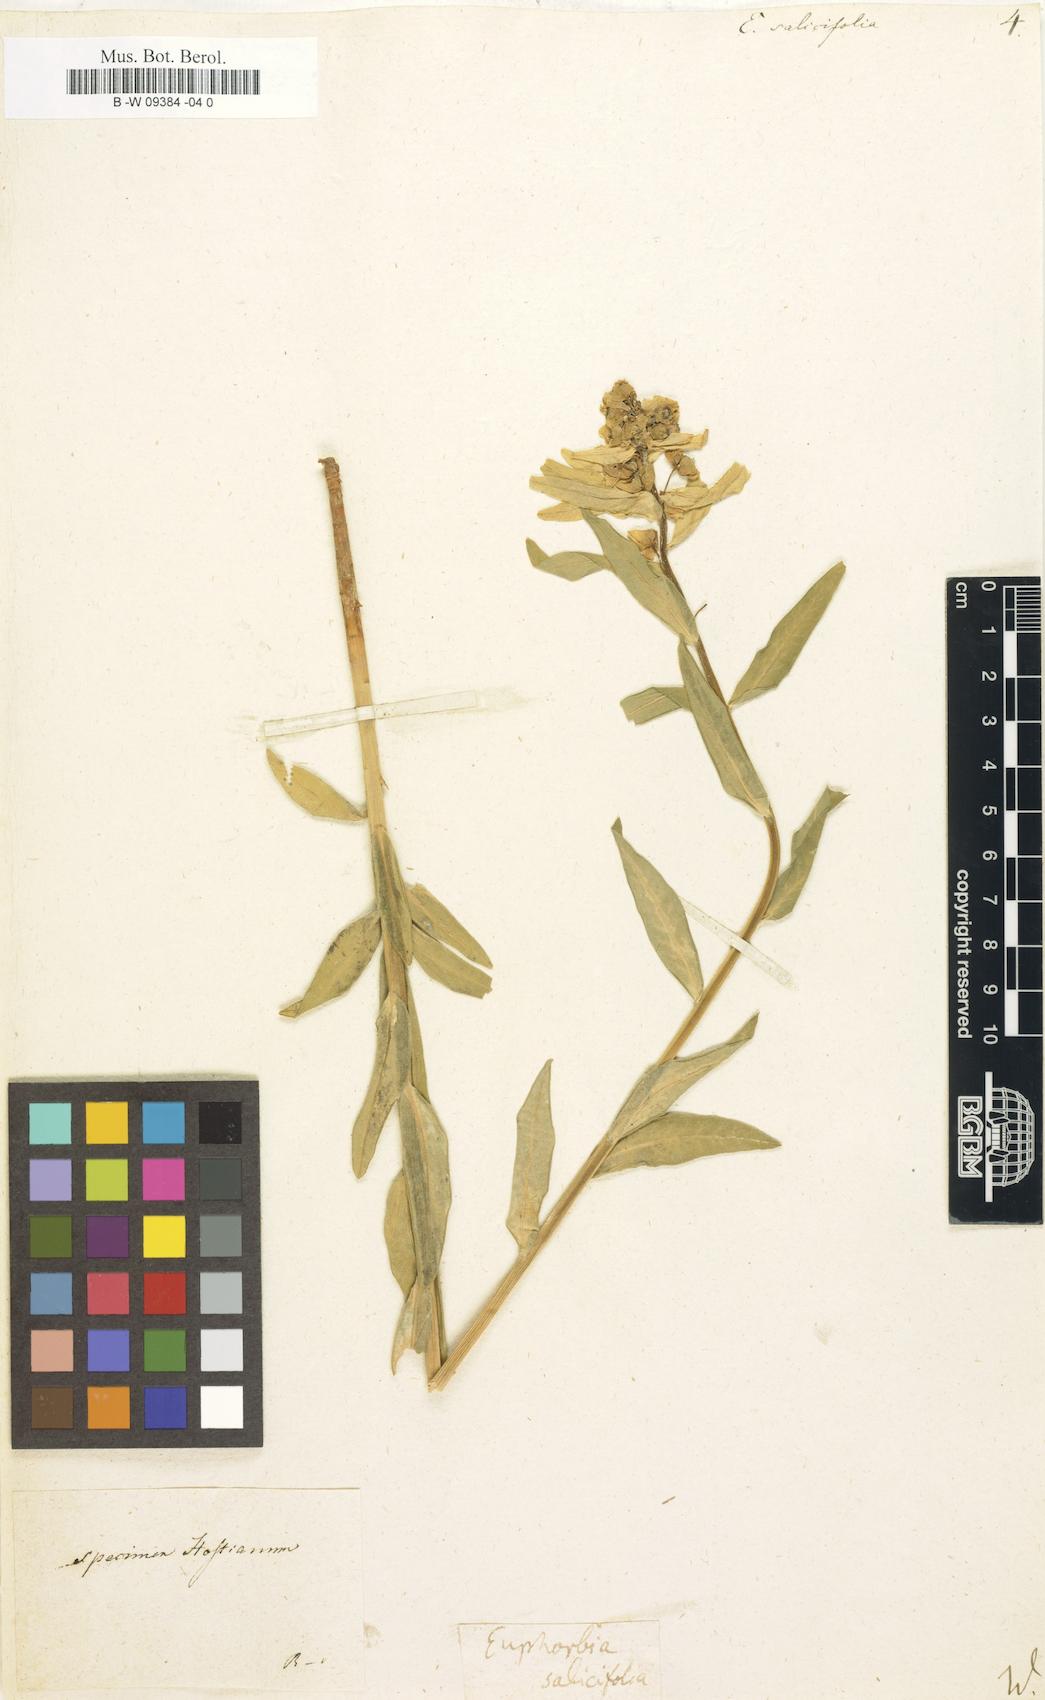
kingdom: Plantae
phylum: Tracheophyta
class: Magnoliopsida
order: Malpighiales
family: Euphorbiaceae
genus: Euphorbia
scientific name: Euphorbia salicifolia
